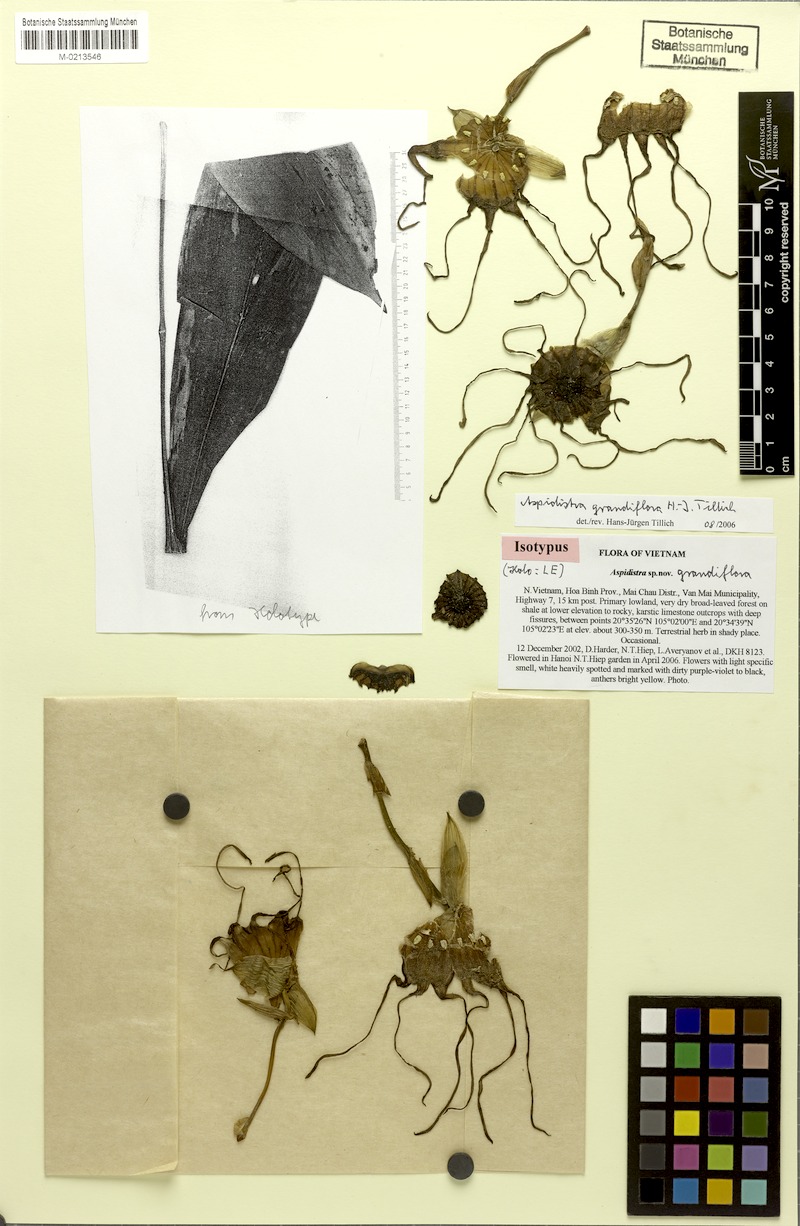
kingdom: Plantae
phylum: Tracheophyta
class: Liliopsida
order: Asparagales
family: Asparagaceae
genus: Aspidistra
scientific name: Aspidistra grandiflora
